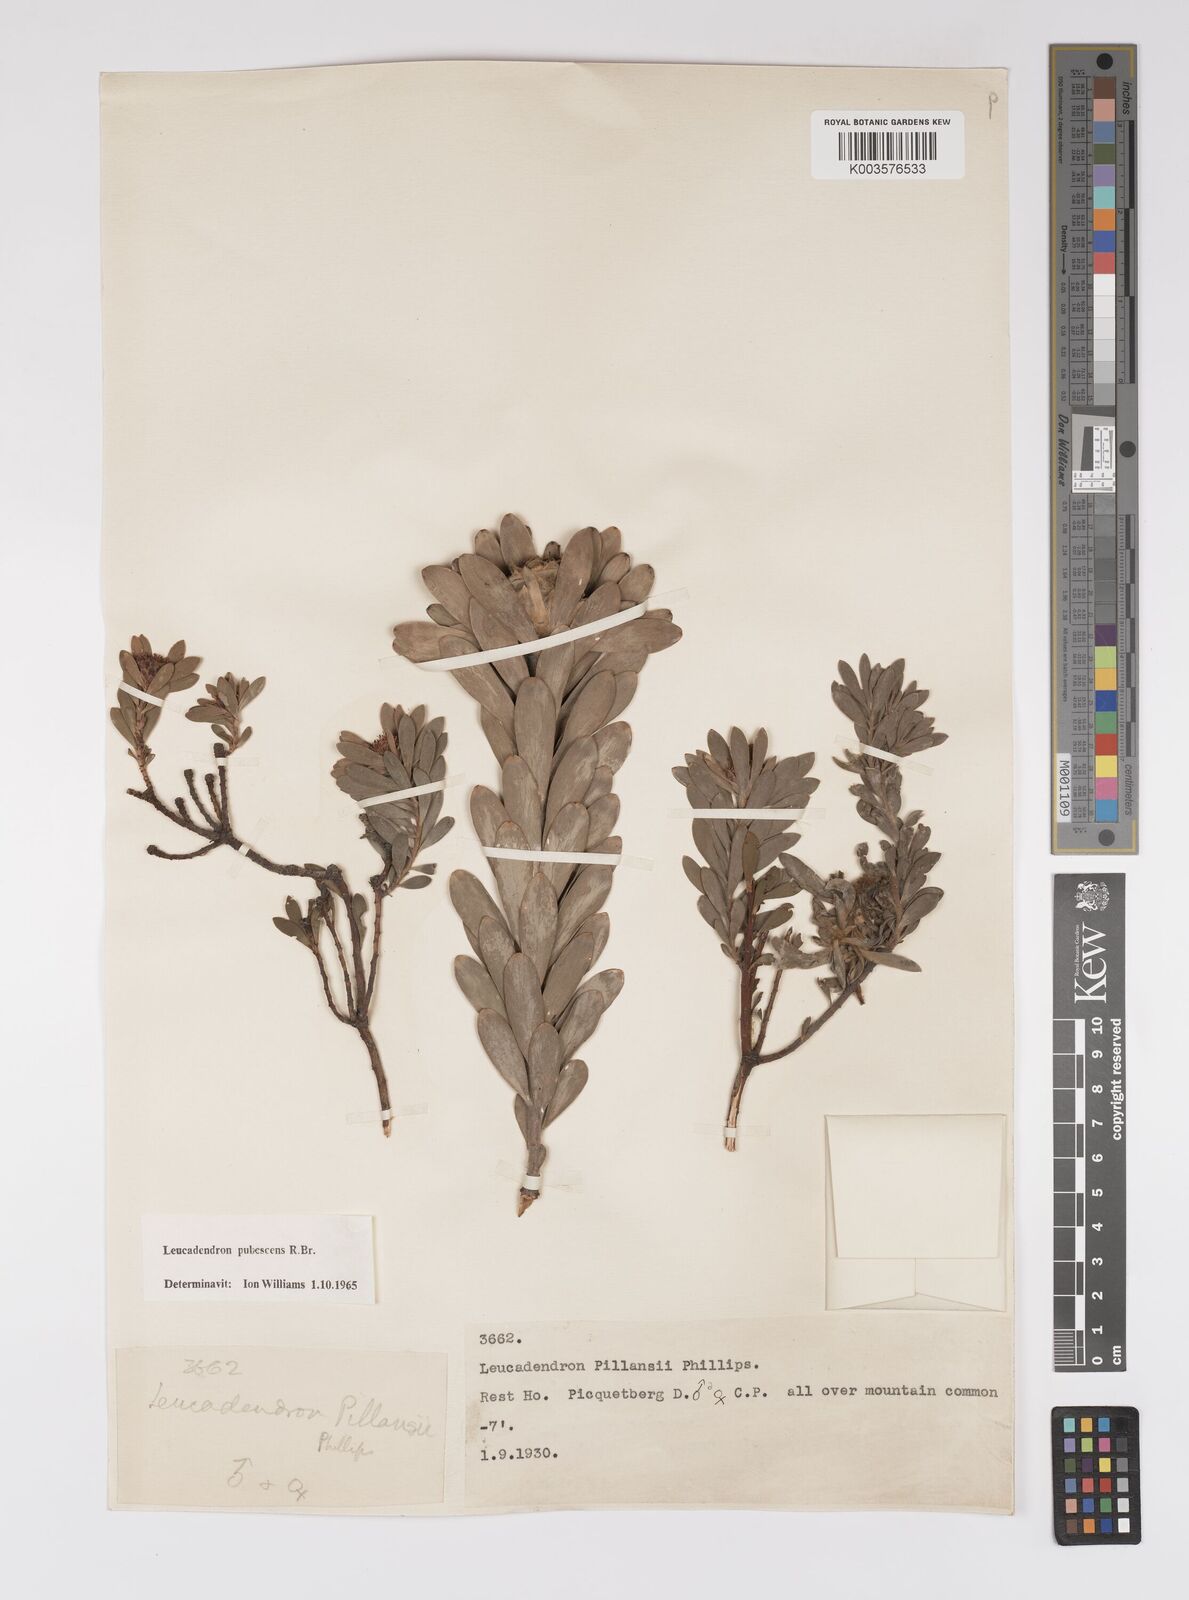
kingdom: Plantae
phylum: Tracheophyta
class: Magnoliopsida
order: Proteales
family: Proteaceae
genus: Leucadendron
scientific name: Leucadendron pubescens
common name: Grey conebush
